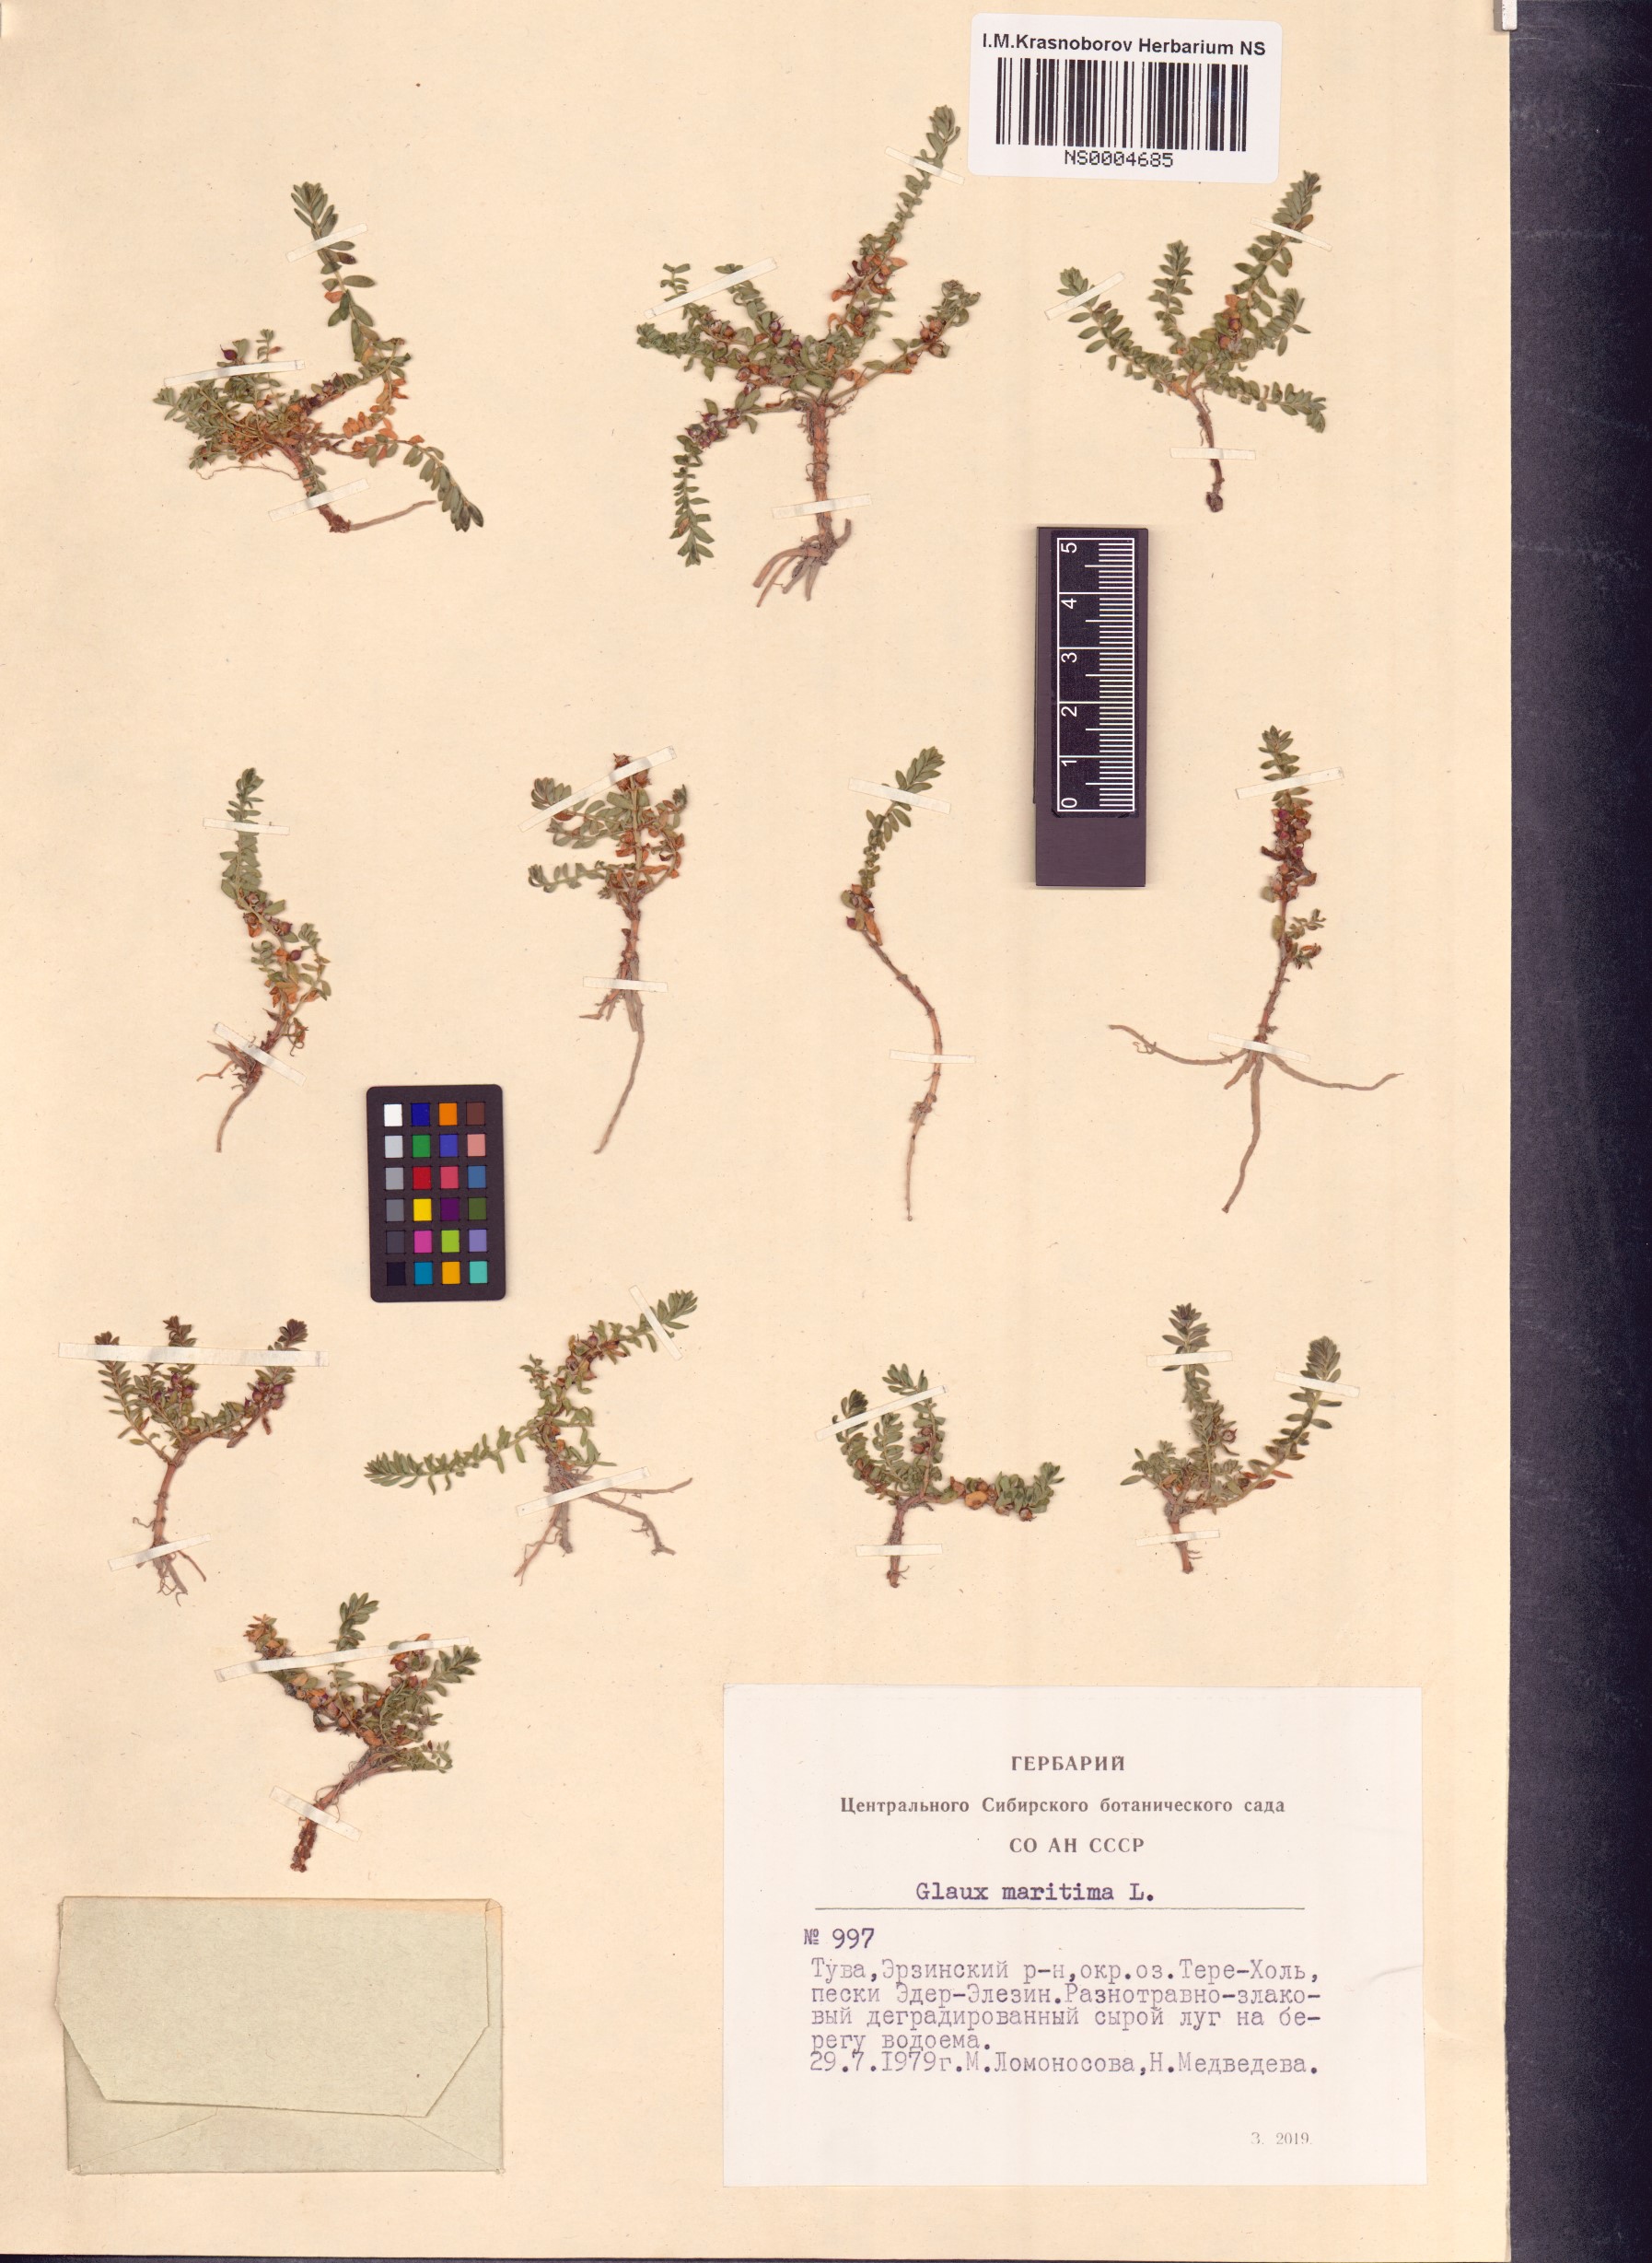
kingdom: Plantae
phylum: Tracheophyta
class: Magnoliopsida
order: Ericales
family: Primulaceae
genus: Lysimachia
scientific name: Lysimachia maritima
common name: Sea milkwort
